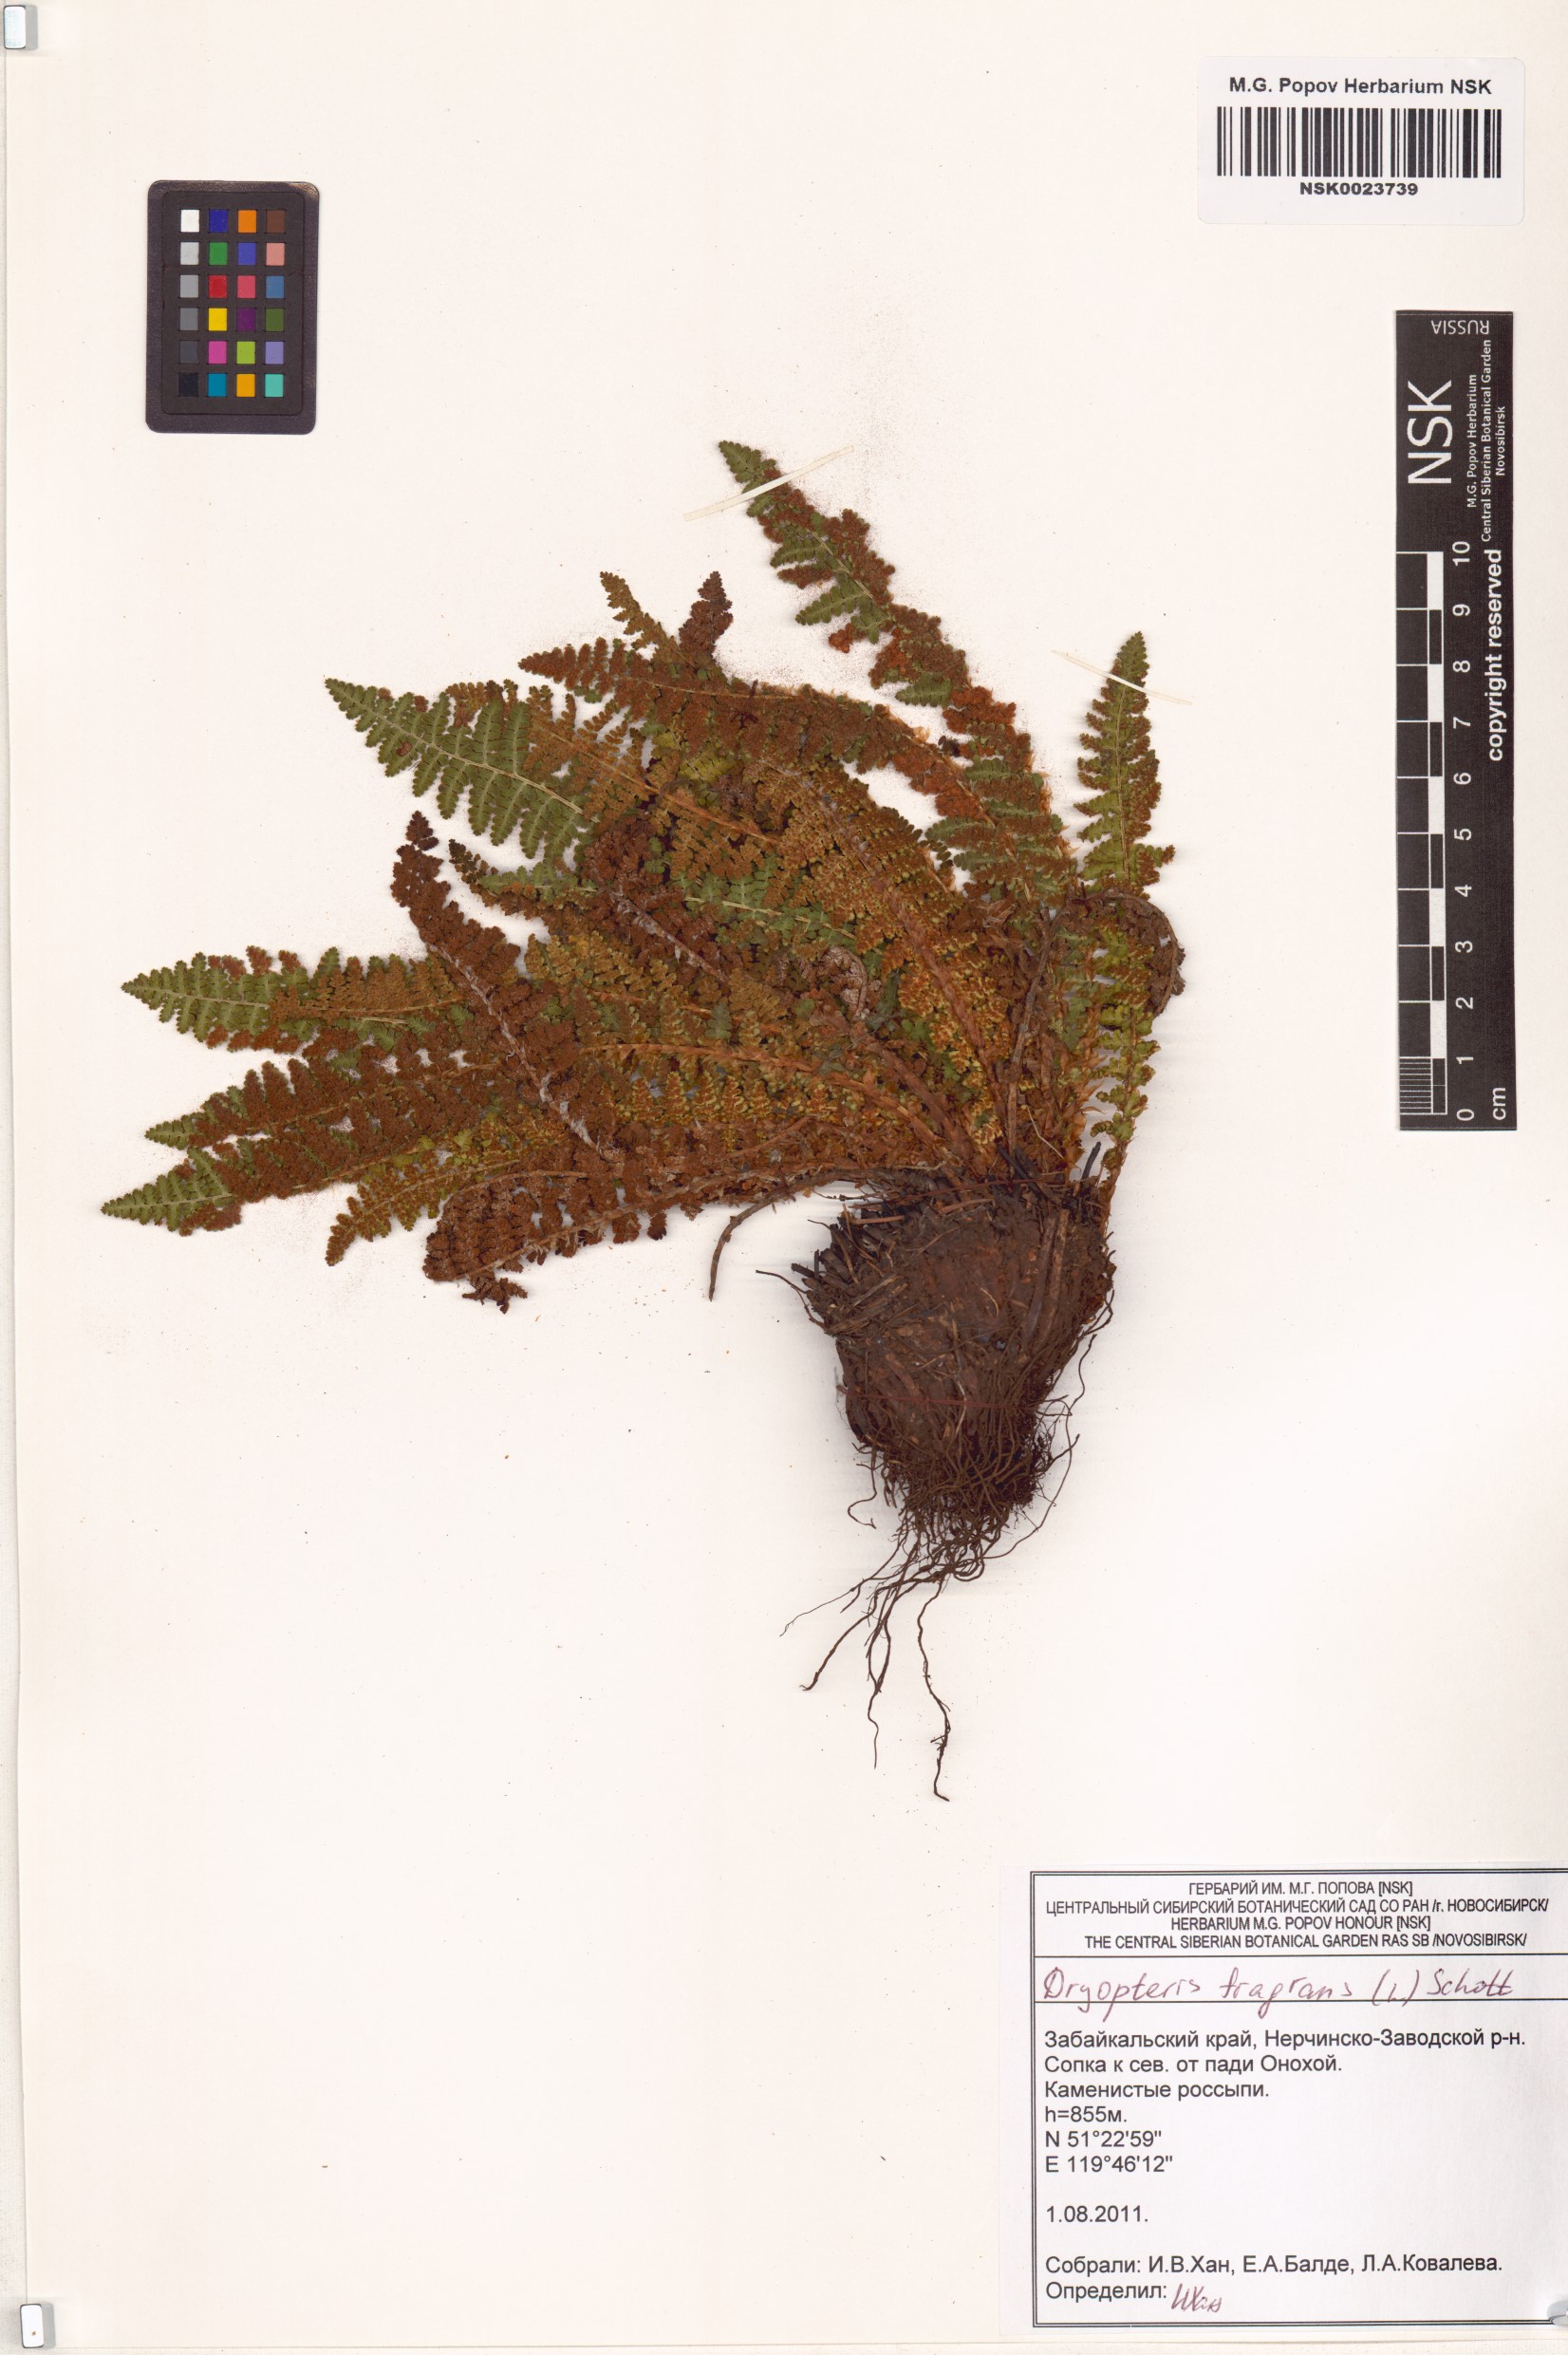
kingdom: Plantae
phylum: Tracheophyta
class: Polypodiopsida
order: Polypodiales
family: Dryopteridaceae
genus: Dryopteris
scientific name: Dryopteris fragrans
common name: Fragrant wood fern
